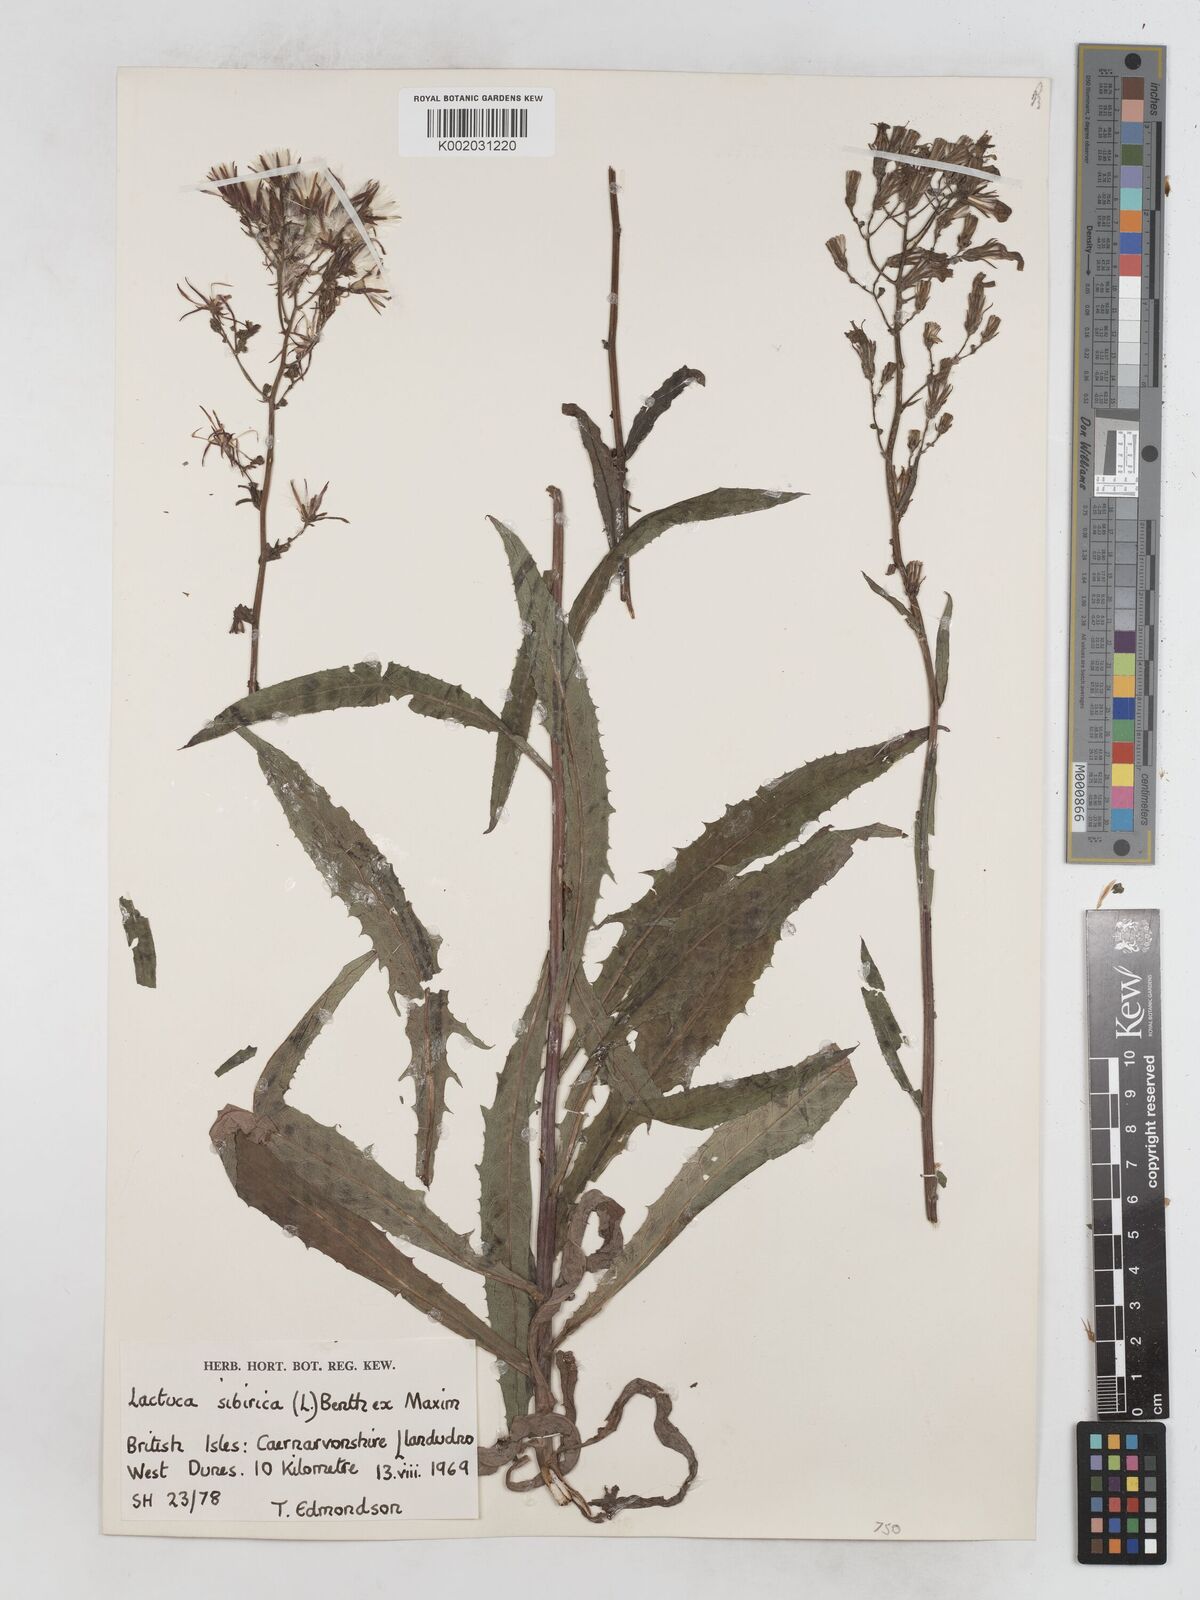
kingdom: Plantae
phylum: Tracheophyta
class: Magnoliopsida
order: Asterales
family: Asteraceae
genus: Lactuca
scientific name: Lactuca sibirica
